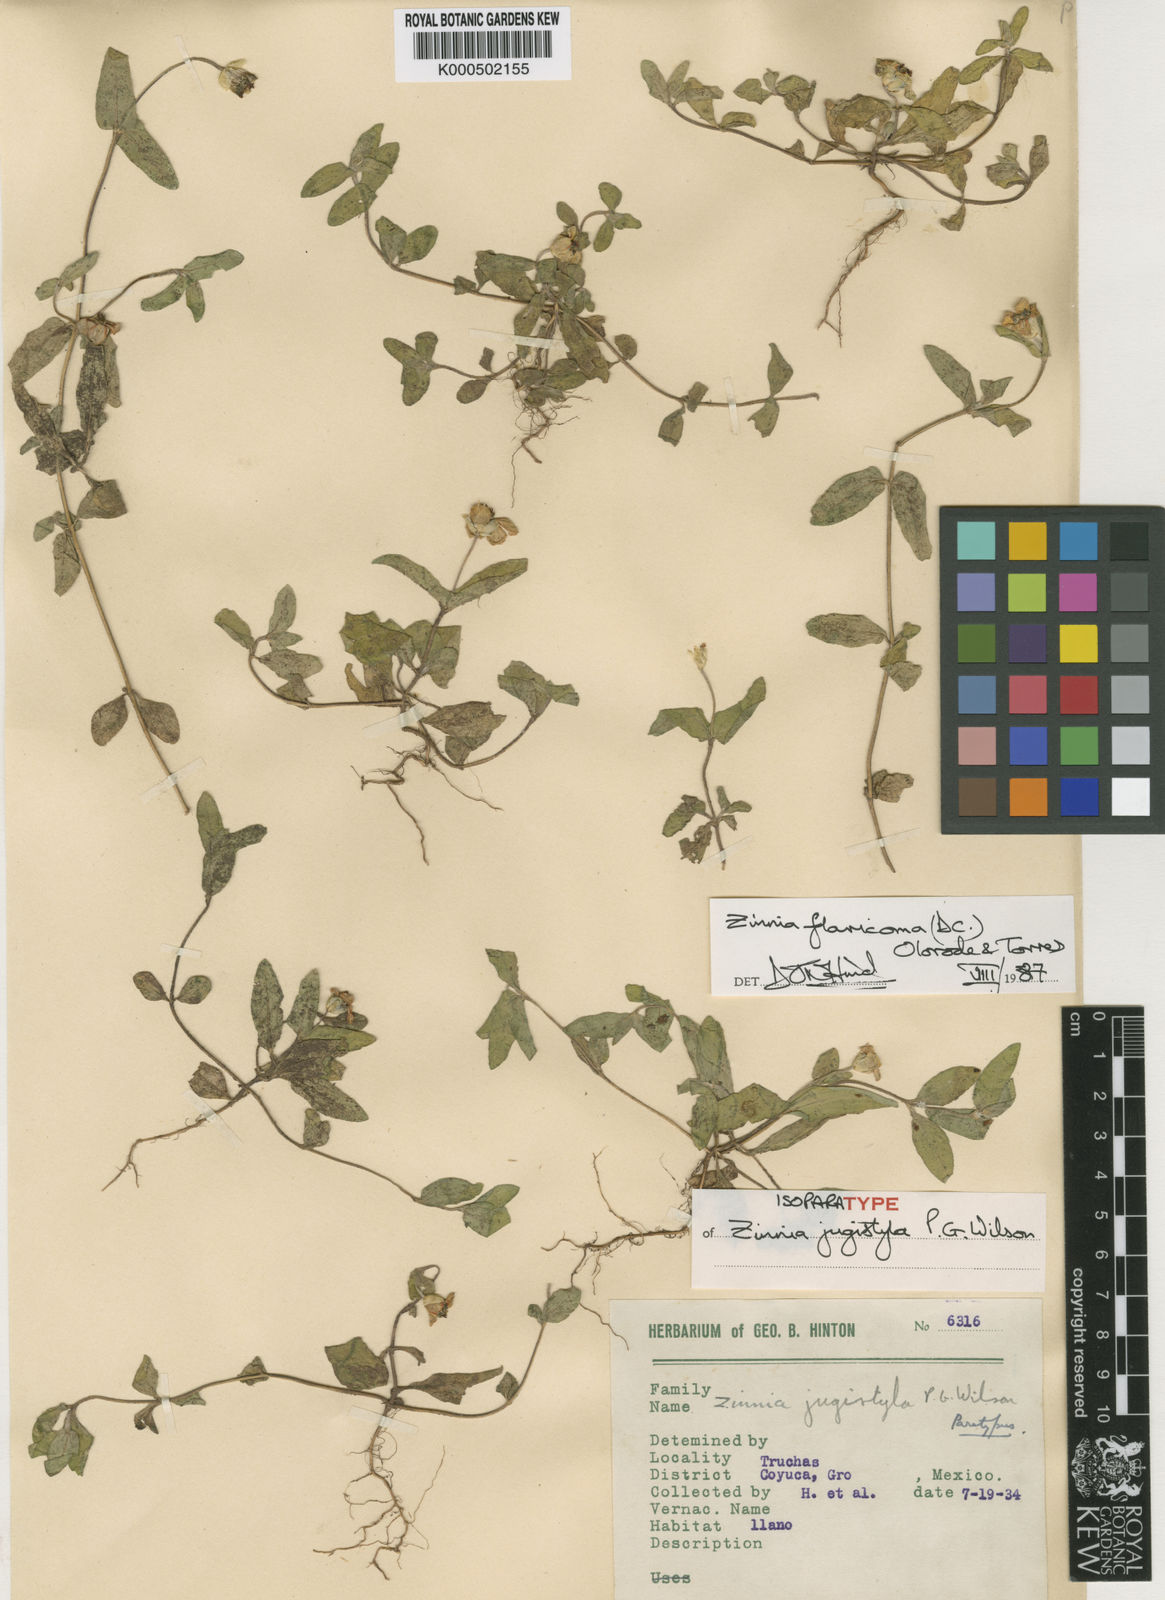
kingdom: Plantae
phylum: Tracheophyta
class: Magnoliopsida
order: Asterales
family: Asteraceae
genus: Zinnia
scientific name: Zinnia flavicoma
